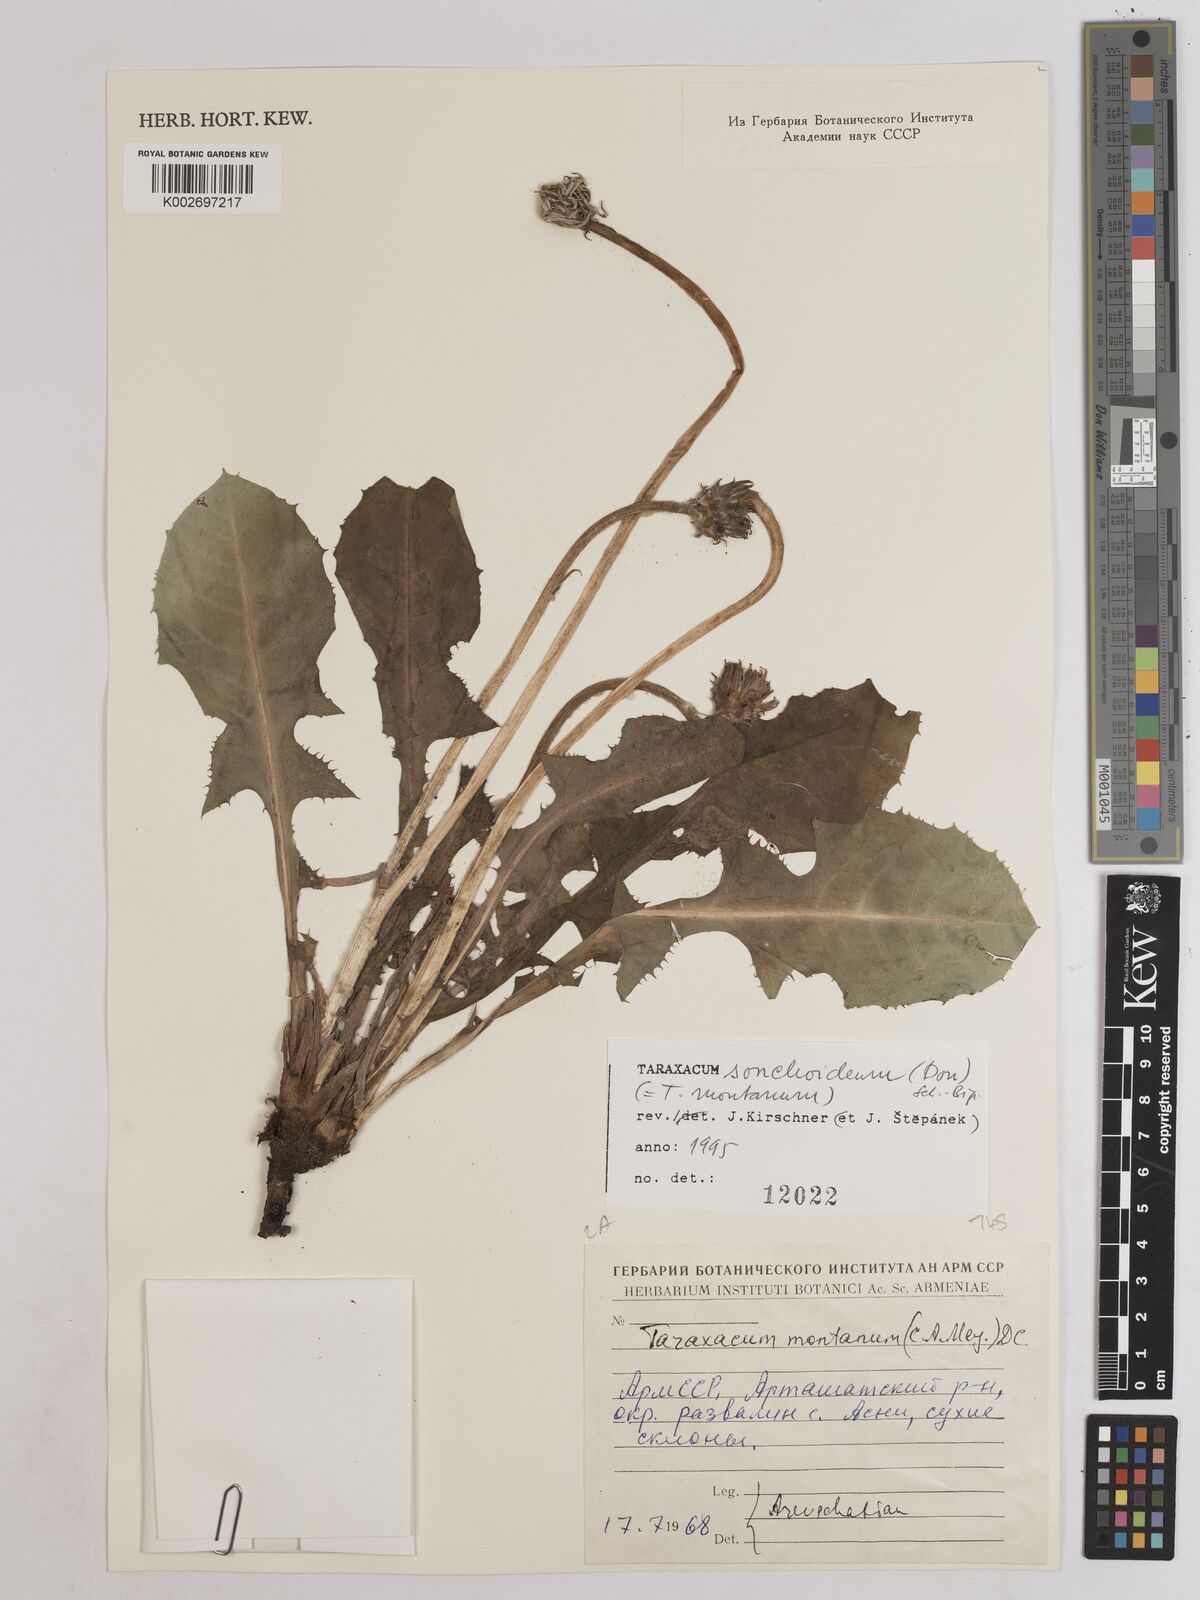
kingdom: Plantae
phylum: Tracheophyta
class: Magnoliopsida
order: Asterales
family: Asteraceae
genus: Taraxacum
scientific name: Taraxacum sonchoides
